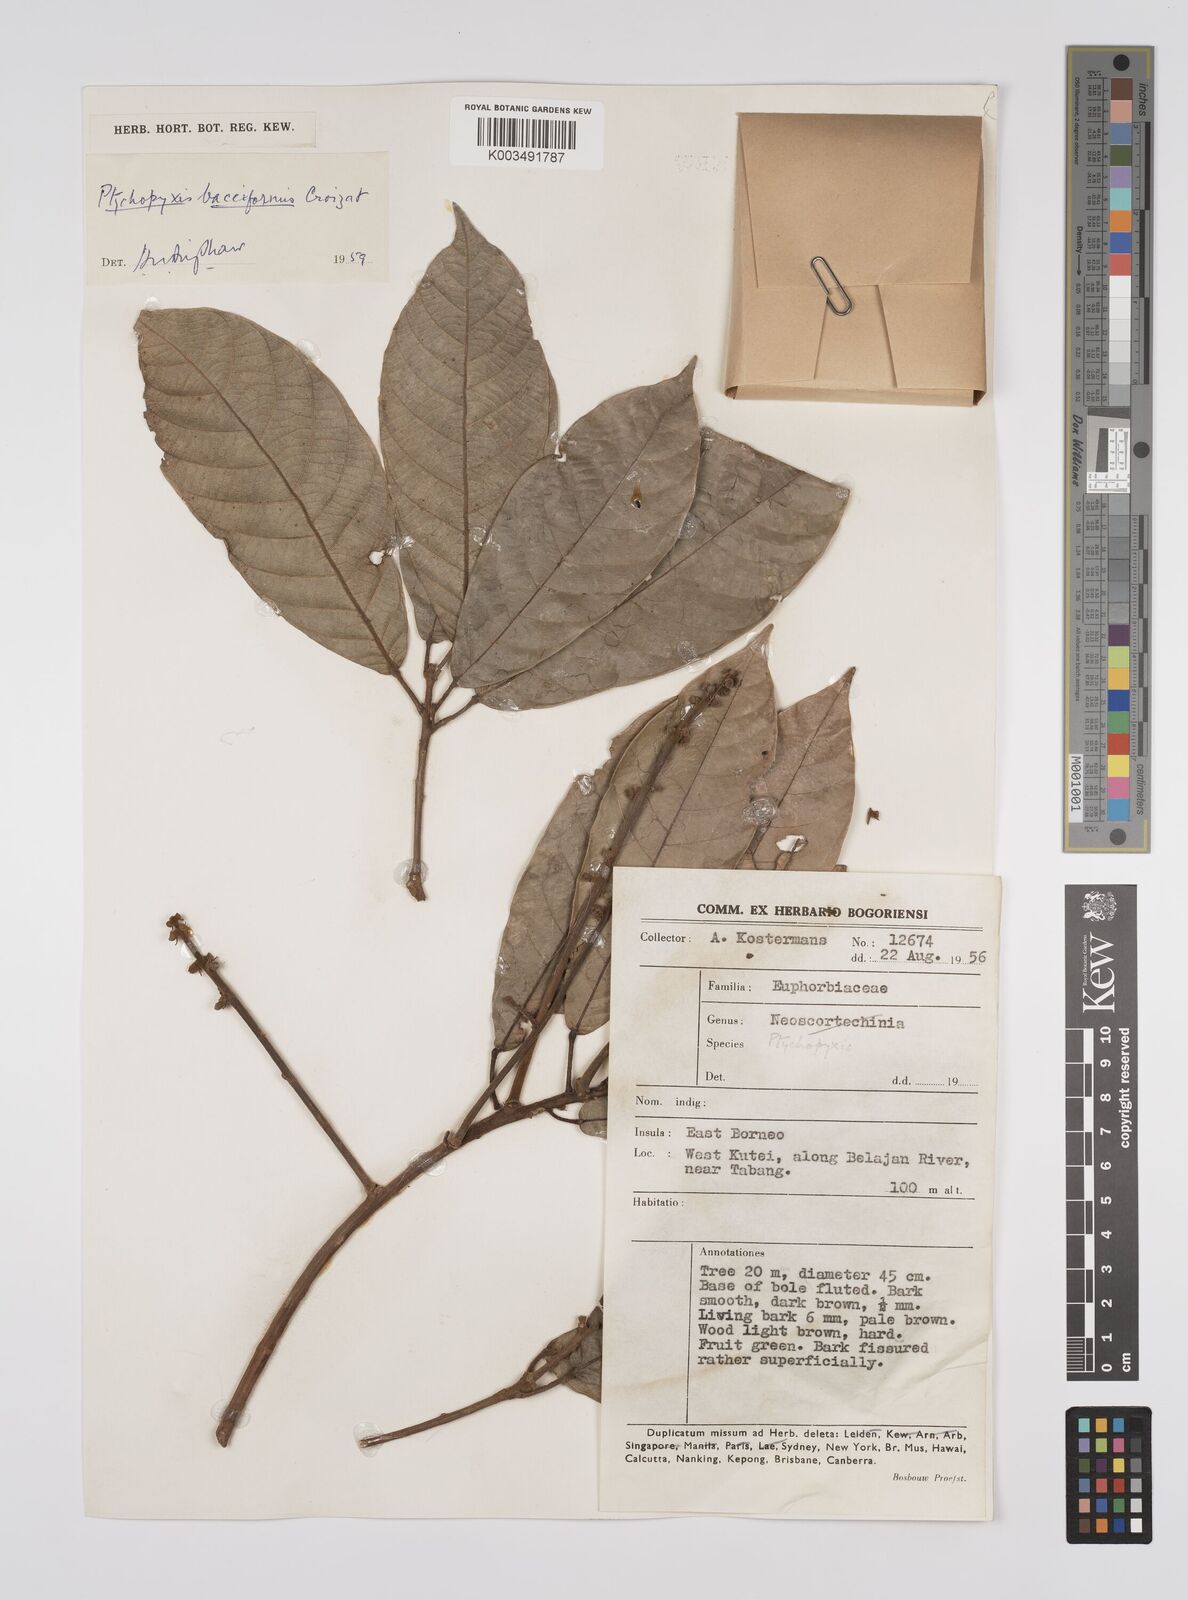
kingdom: Plantae
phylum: Tracheophyta
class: Magnoliopsida
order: Malpighiales
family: Euphorbiaceae
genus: Ptychopyxis
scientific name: Ptychopyxis bacciformis
